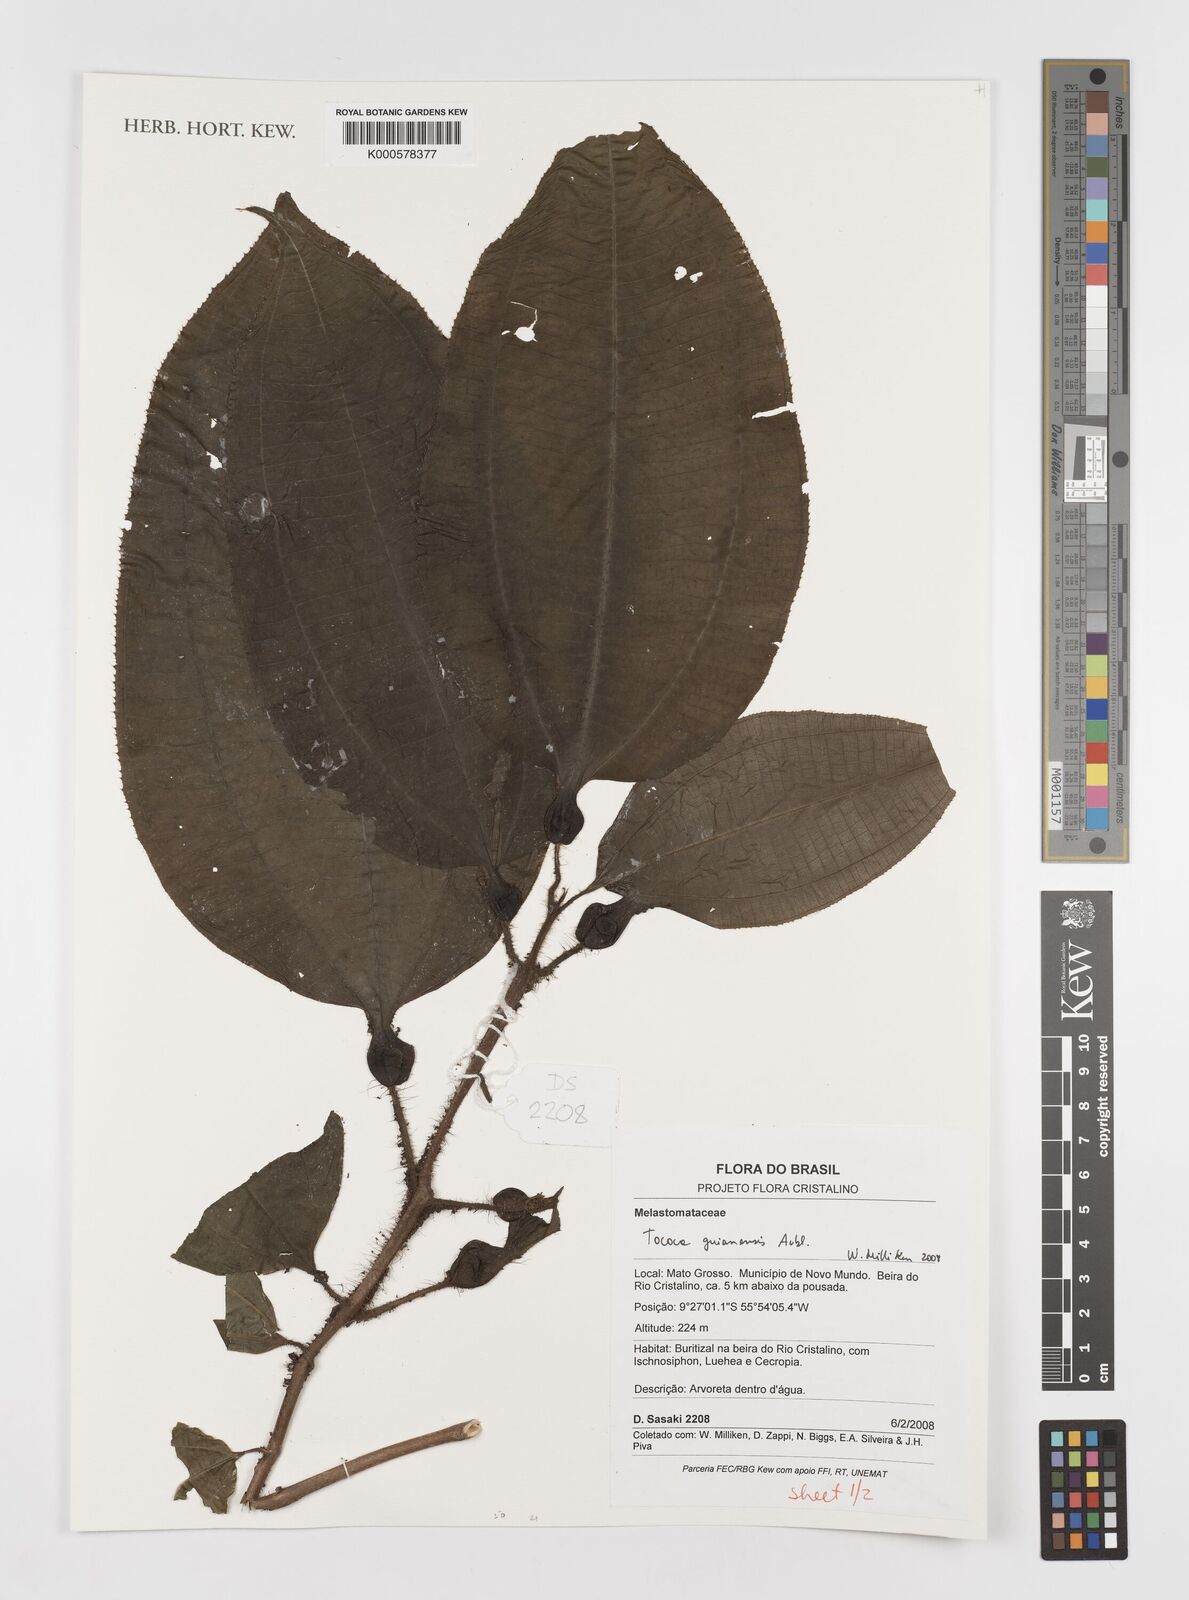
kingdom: Plantae
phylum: Tracheophyta
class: Magnoliopsida
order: Myrtales
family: Melastomataceae
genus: Miconia
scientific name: Miconia tococa
